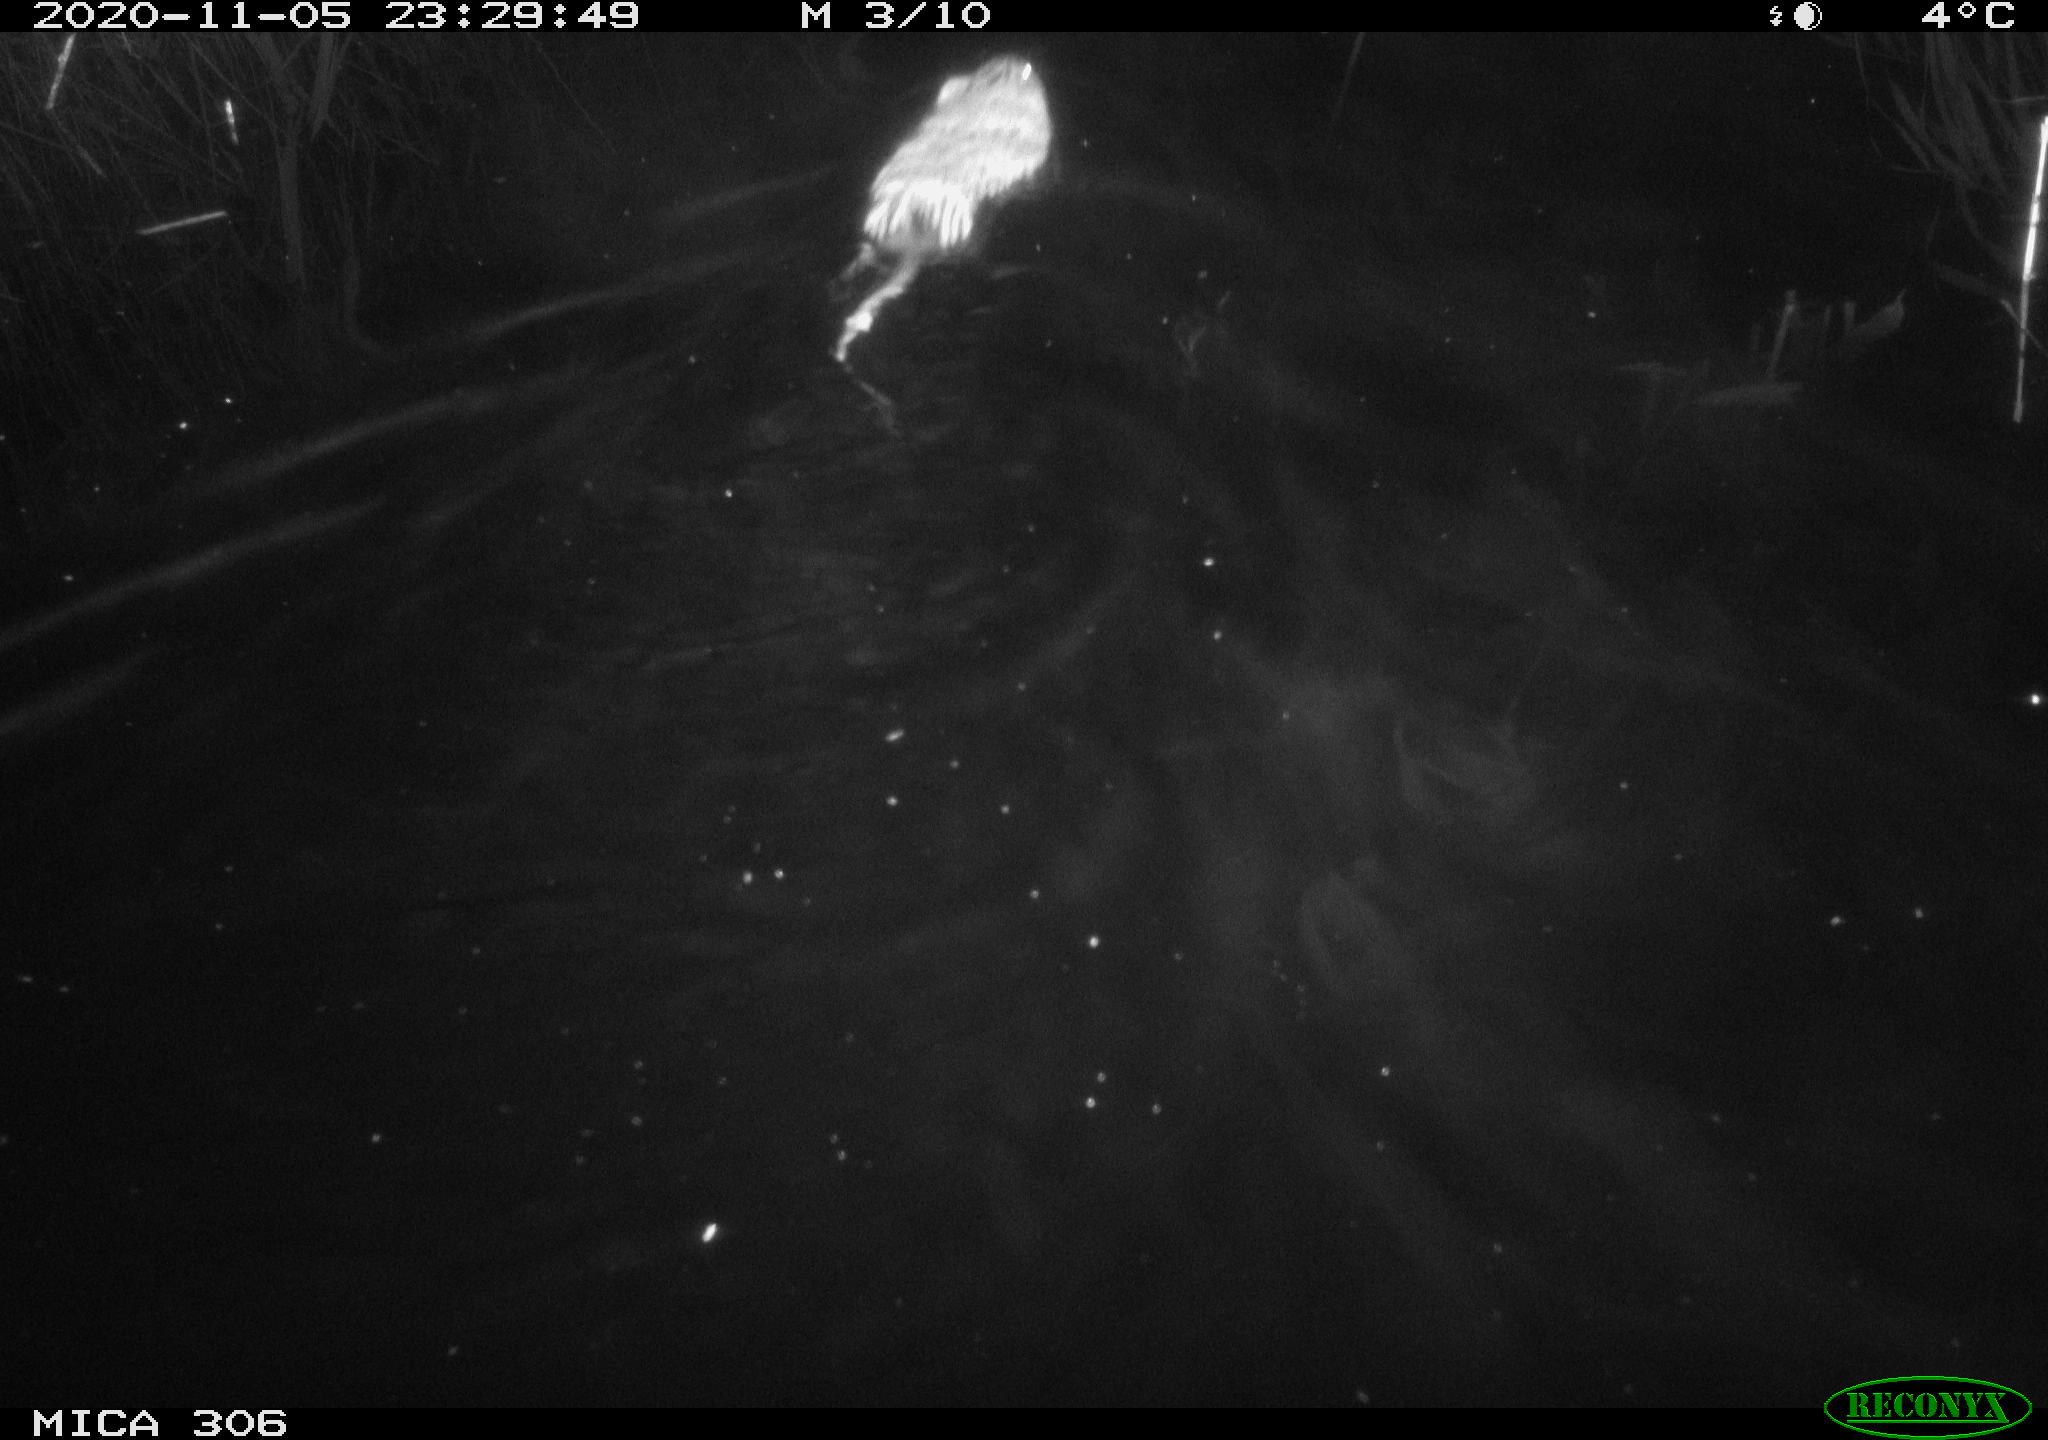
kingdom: Animalia
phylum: Chordata
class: Mammalia
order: Rodentia
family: Cricetidae
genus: Ondatra
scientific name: Ondatra zibethicus
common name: Muskrat
